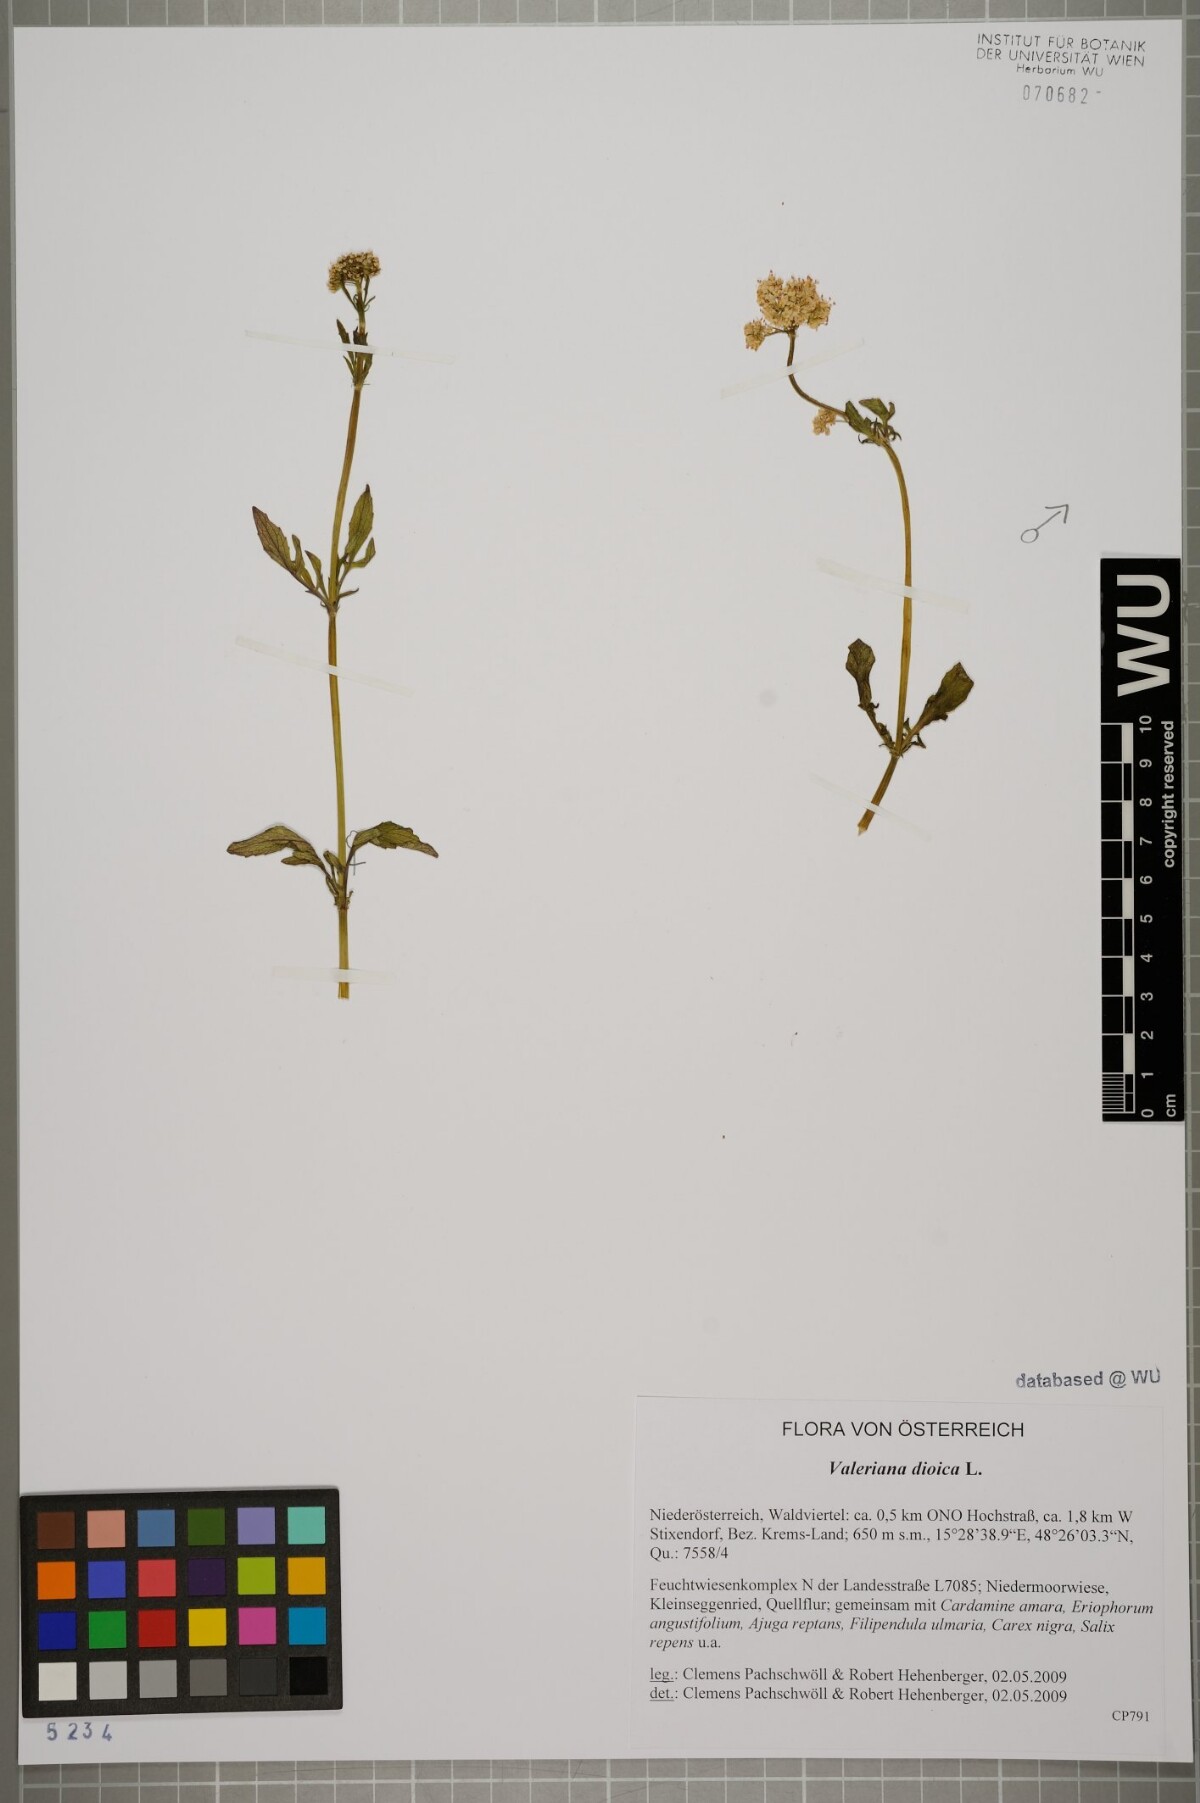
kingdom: Plantae
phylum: Tracheophyta
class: Magnoliopsida
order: Dipsacales
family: Caprifoliaceae
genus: Valeriana
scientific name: Valeriana dioica
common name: Marsh valerian
